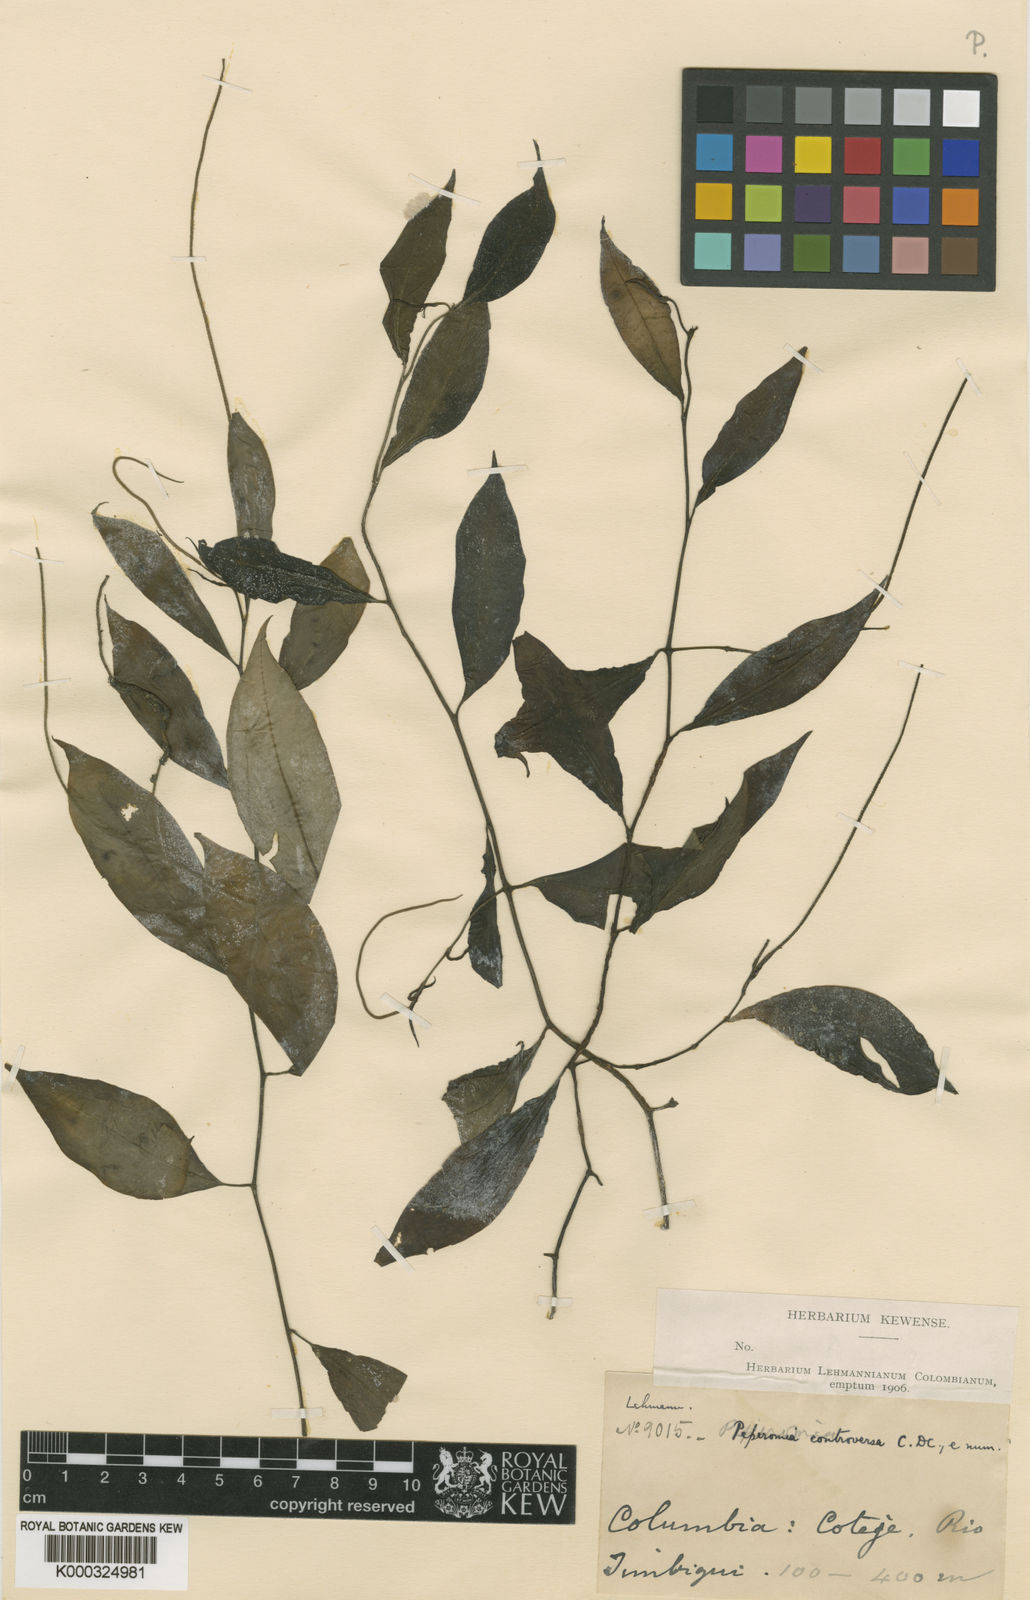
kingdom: Plantae
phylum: Tracheophyta
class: Magnoliopsida
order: Piperales
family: Piperaceae
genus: Peperomia
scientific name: Peperomia elongata
